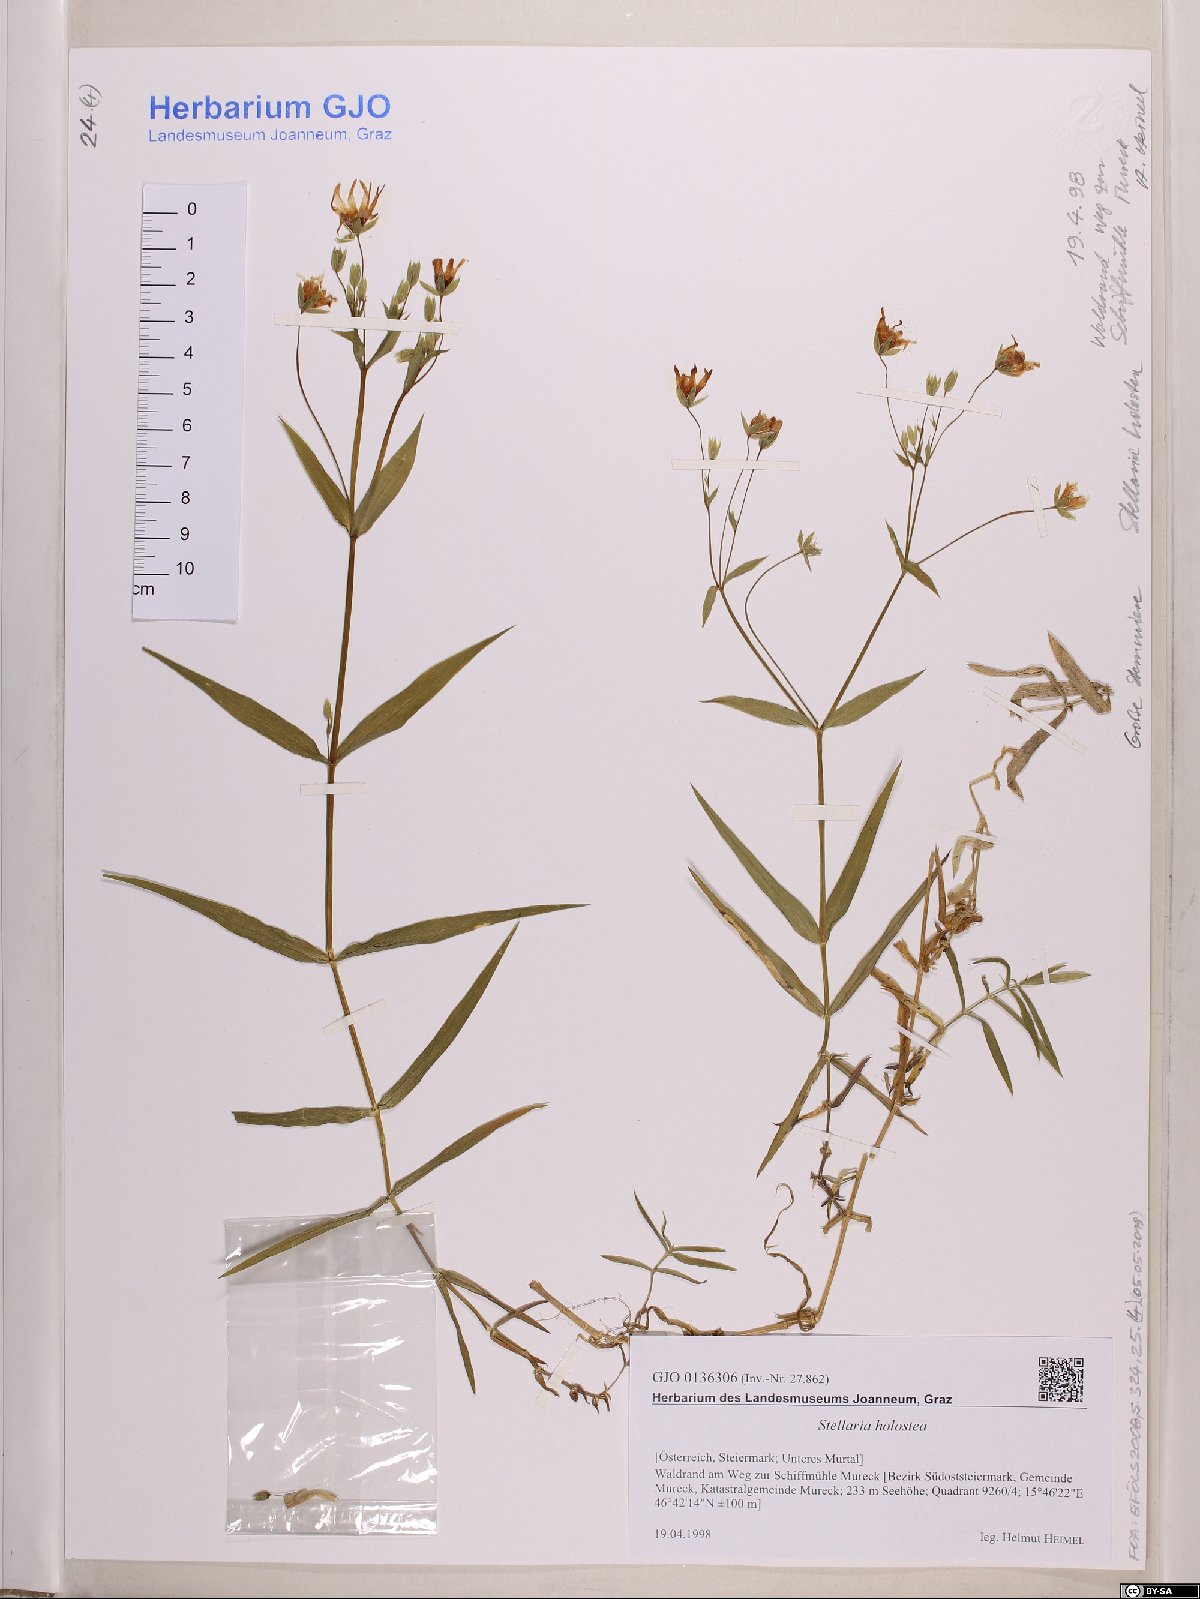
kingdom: Plantae
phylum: Tracheophyta
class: Magnoliopsida
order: Caryophyllales
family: Caryophyllaceae
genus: Rabelera
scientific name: Rabelera holostea
